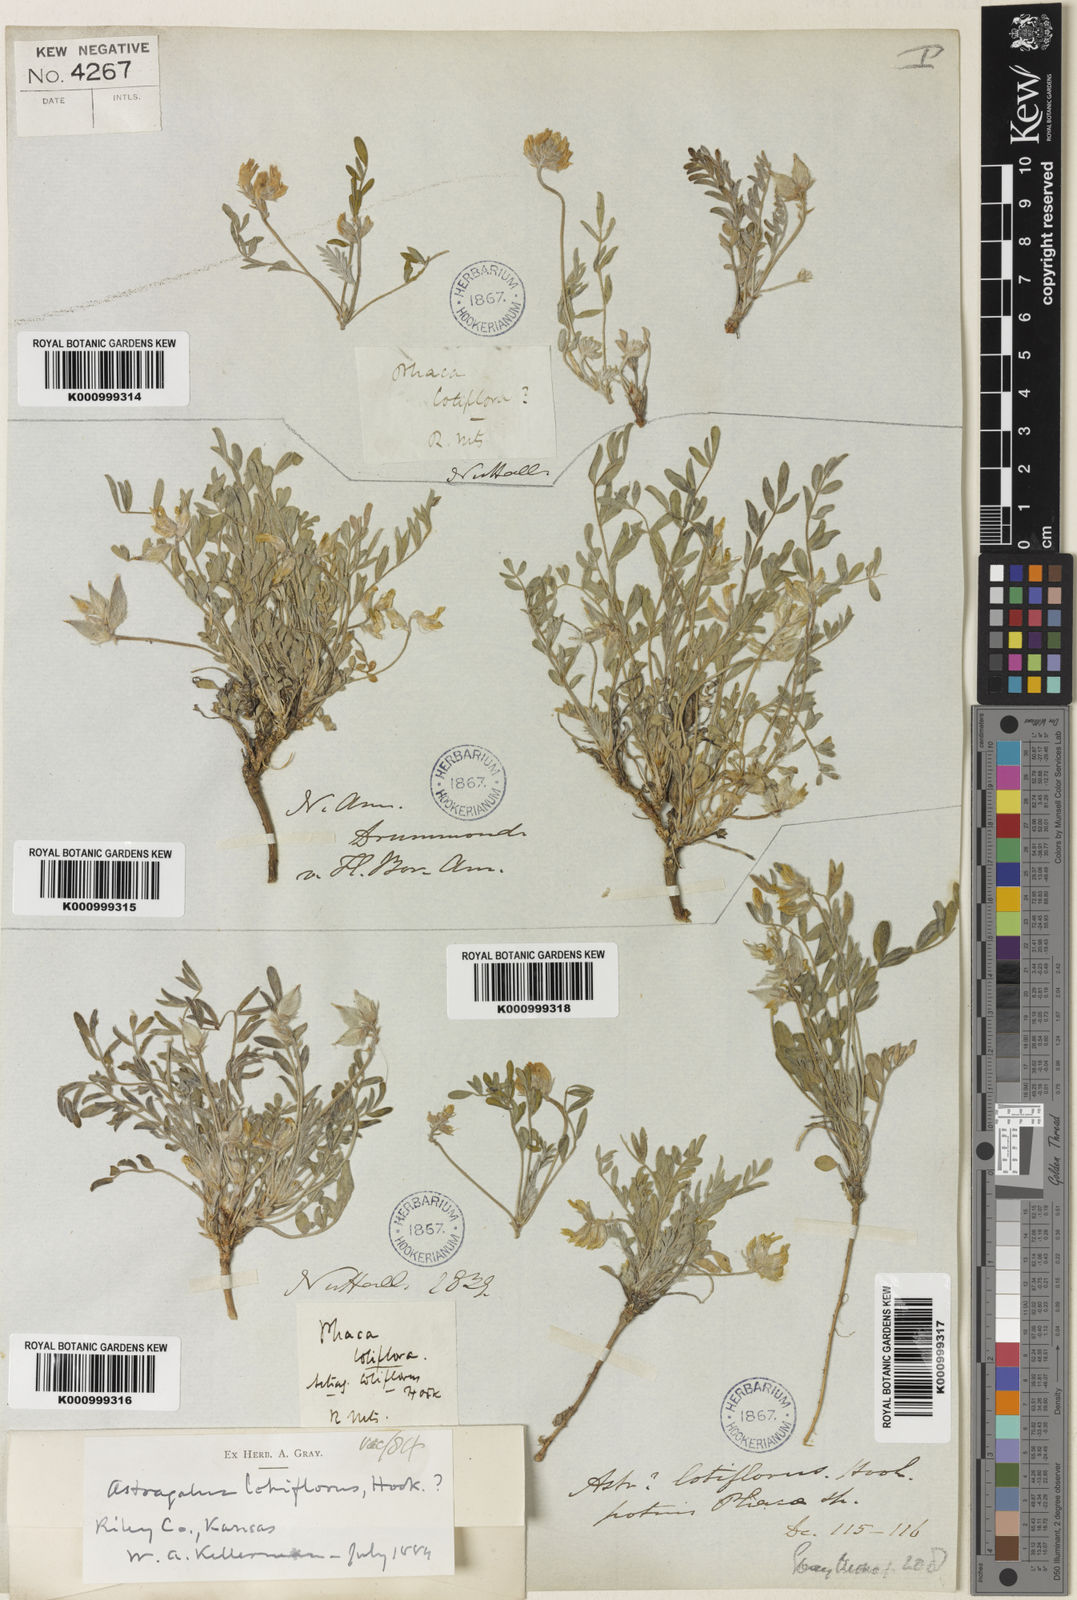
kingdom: Plantae
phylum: Tracheophyta
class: Magnoliopsida
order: Fabales
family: Fabaceae
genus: Astragalus
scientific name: Astragalus lotiflorus
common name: Lotus milk-vetch
